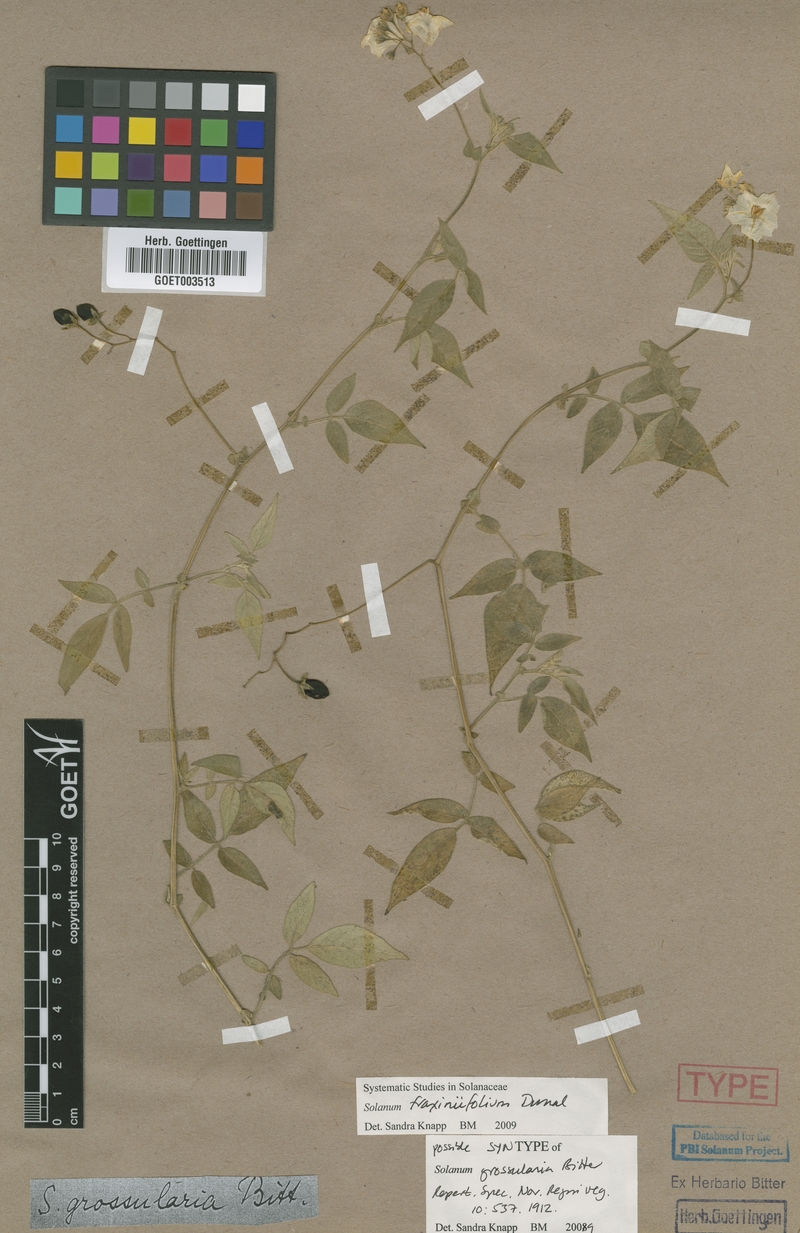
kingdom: Plantae
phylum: Tracheophyta
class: Magnoliopsida
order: Solanales
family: Solanaceae
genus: Solanum
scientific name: Solanum fraxinifolium
